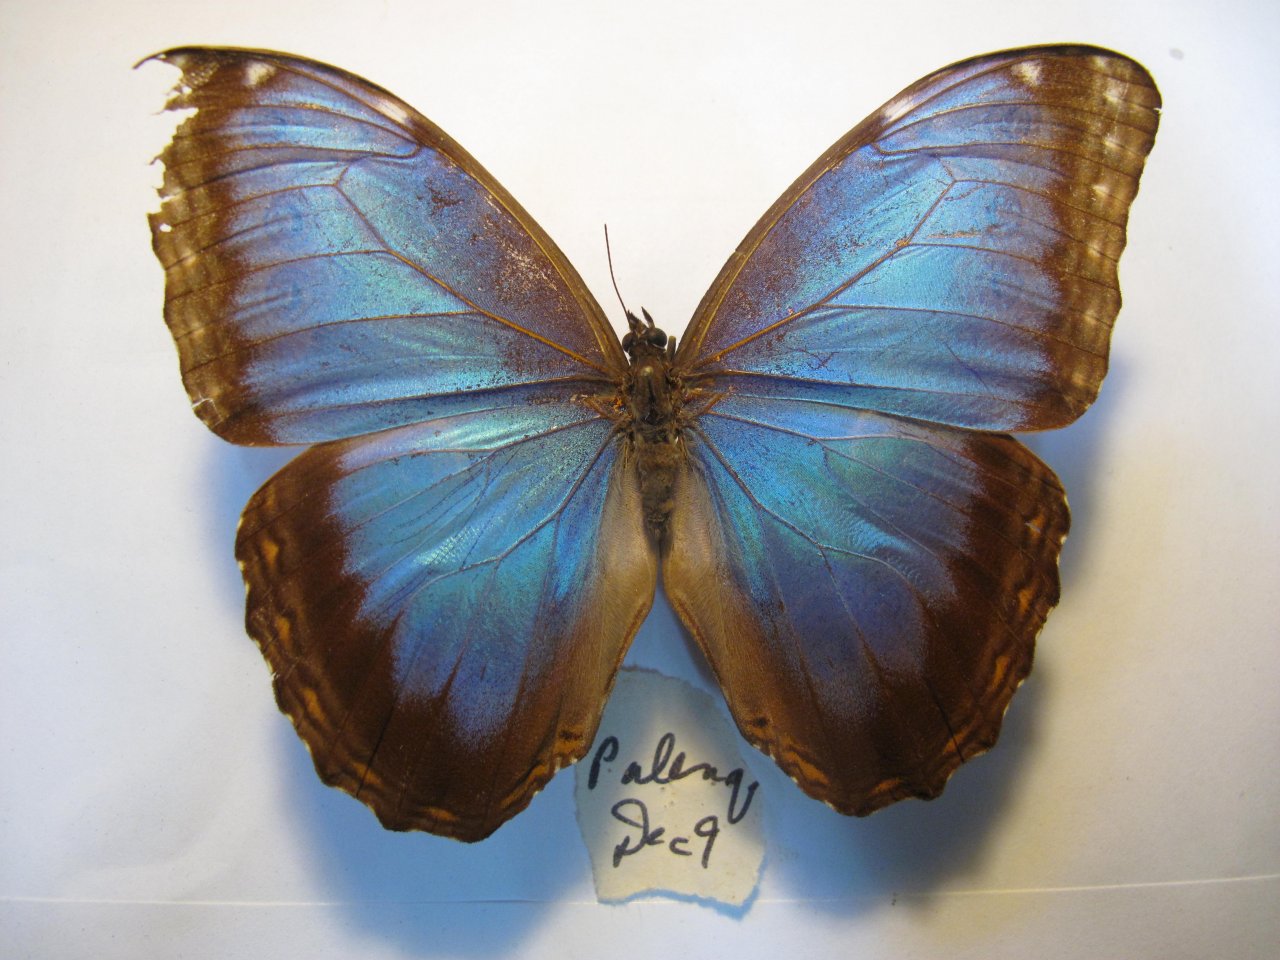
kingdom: Animalia
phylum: Arthropoda
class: Insecta
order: Lepidoptera
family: Nymphalidae
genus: Morpho
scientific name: Morpho helenor
